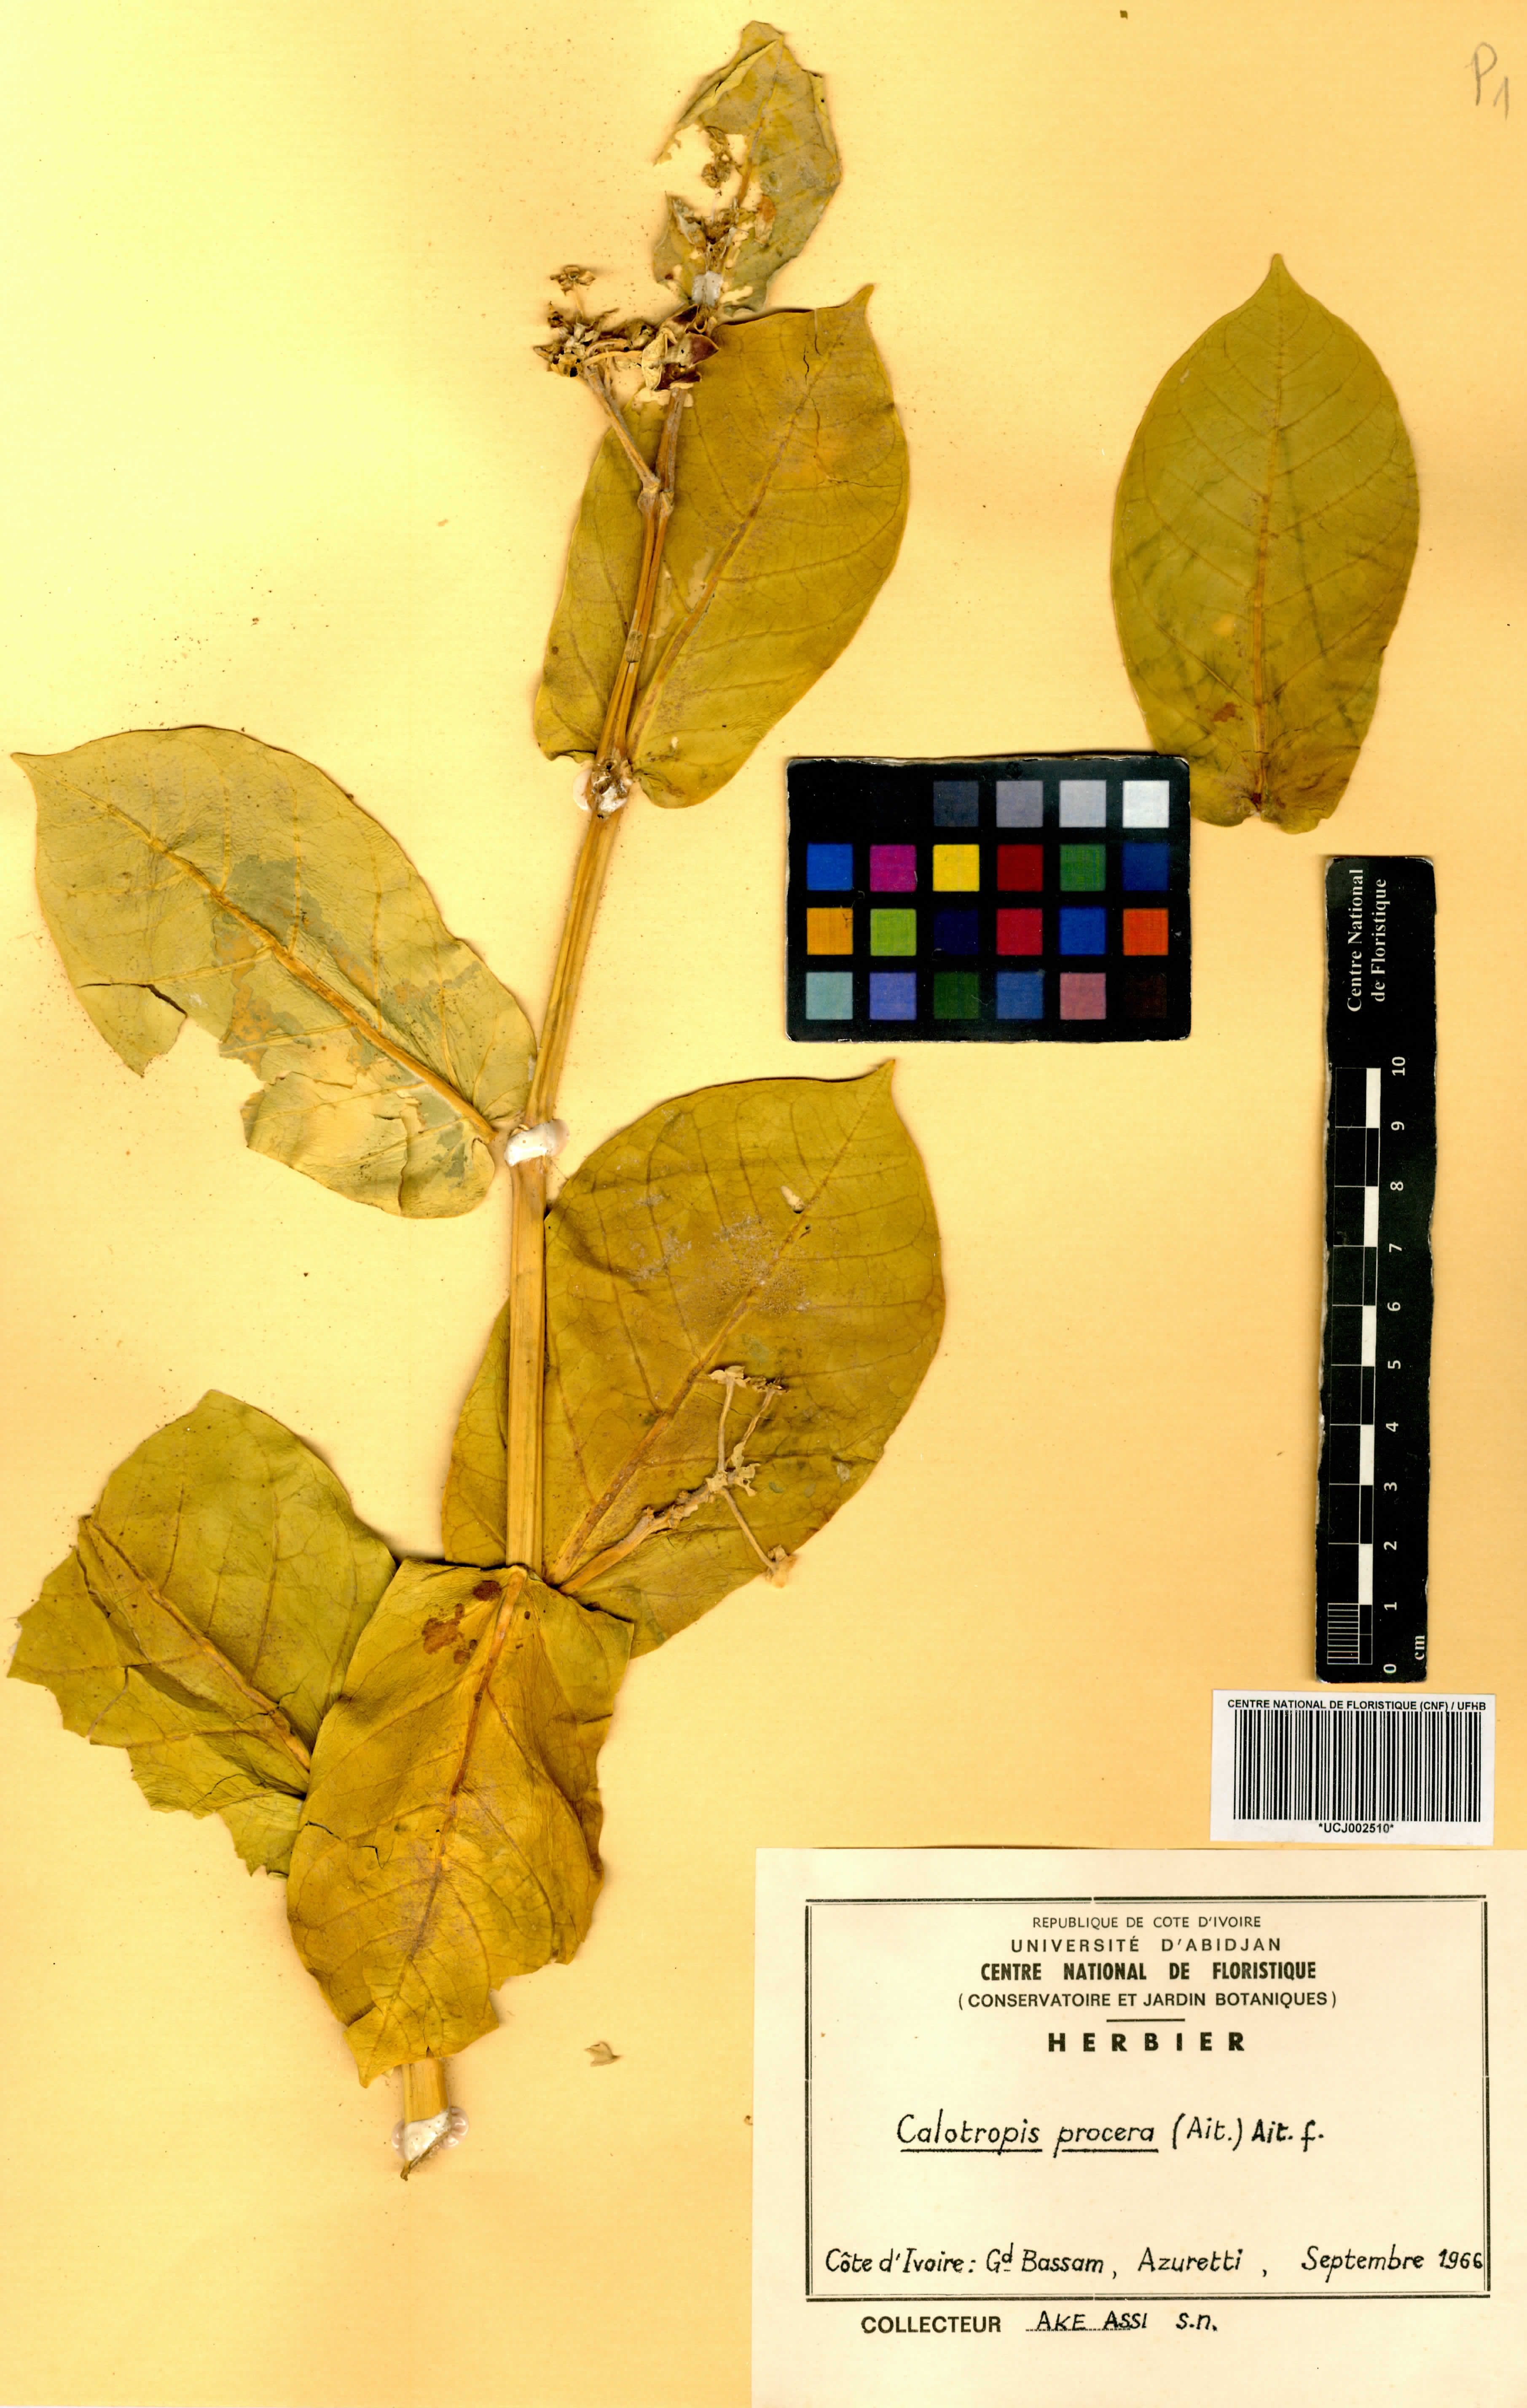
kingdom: Plantae
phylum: Tracheophyta
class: Magnoliopsida
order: Gentianales
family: Apocynaceae
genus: Calotropis
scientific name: Calotropis procera
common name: Roostertree
